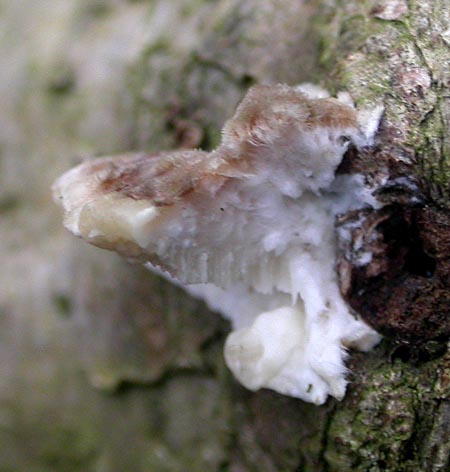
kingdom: Fungi
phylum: Basidiomycota
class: Agaricomycetes
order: Polyporales
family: Polyporaceae
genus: Trametes
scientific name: Trametes versicolor
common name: broget læderporesvamp
